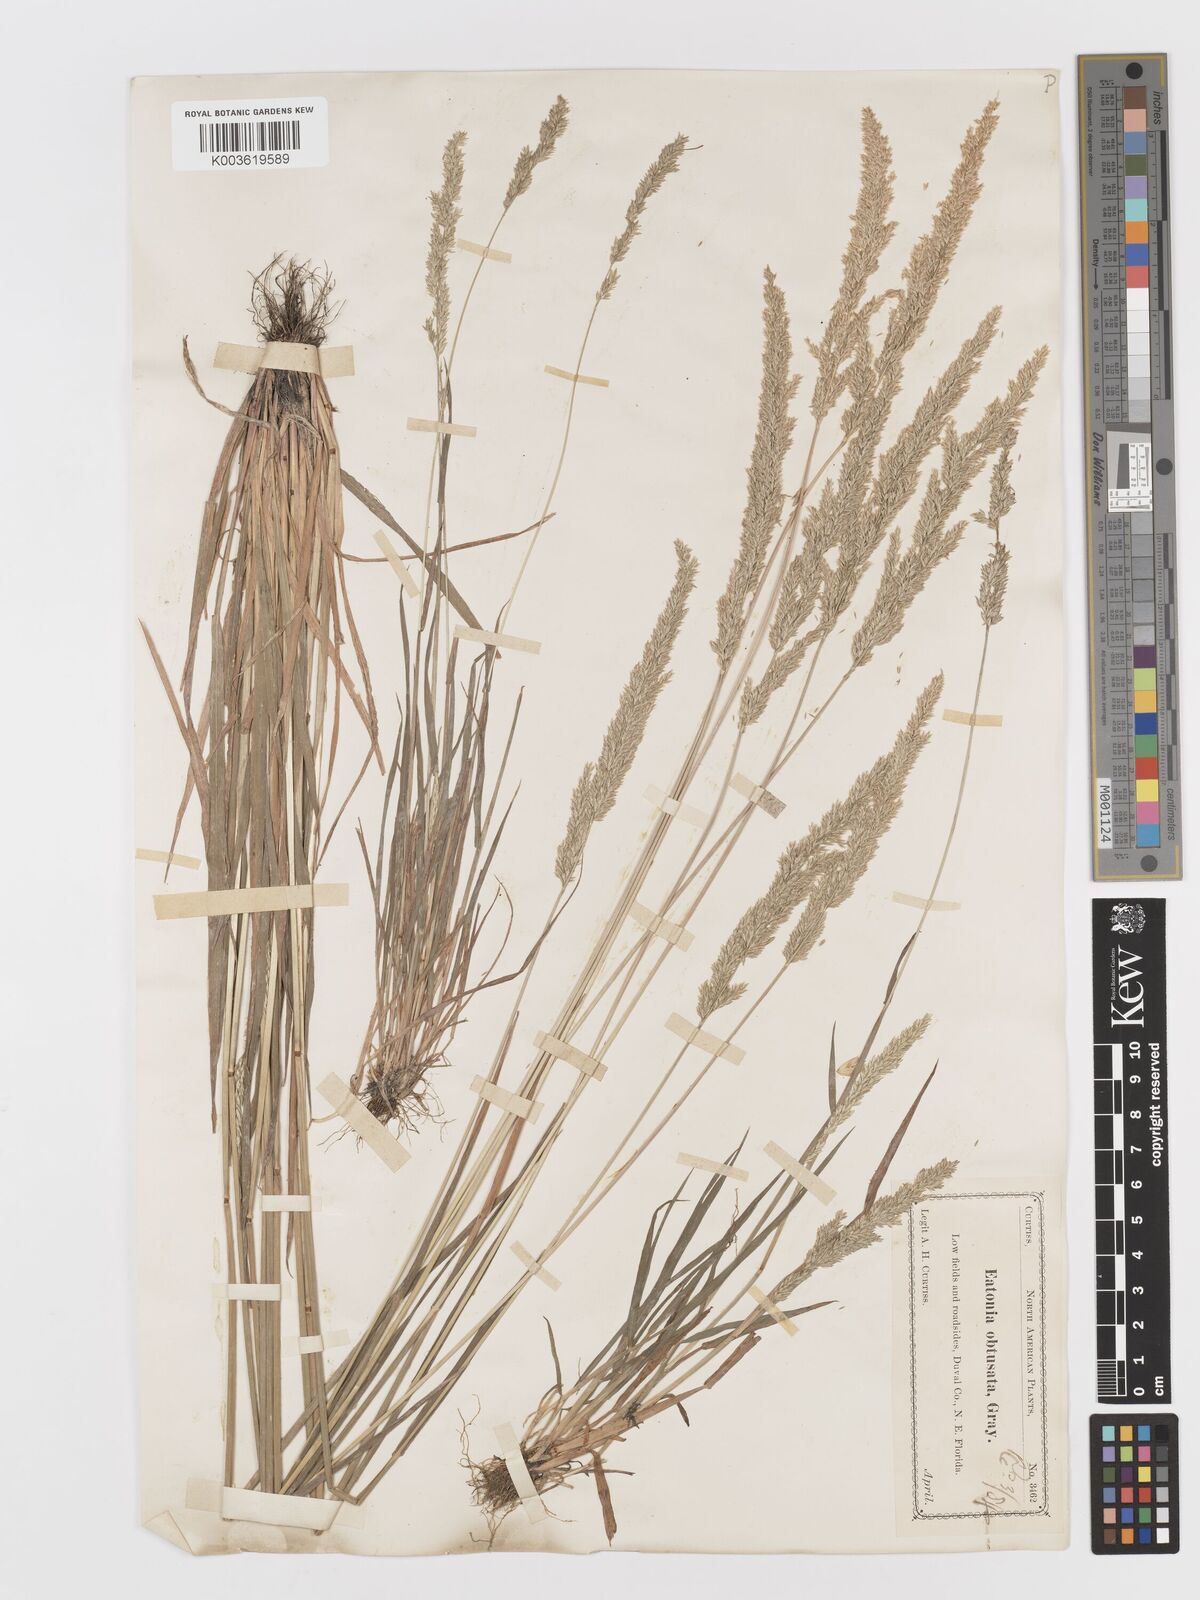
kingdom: Plantae
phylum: Tracheophyta
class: Liliopsida
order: Poales
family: Poaceae
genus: Sphenopholis
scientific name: Sphenopholis obtusata
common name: Prairie grass
